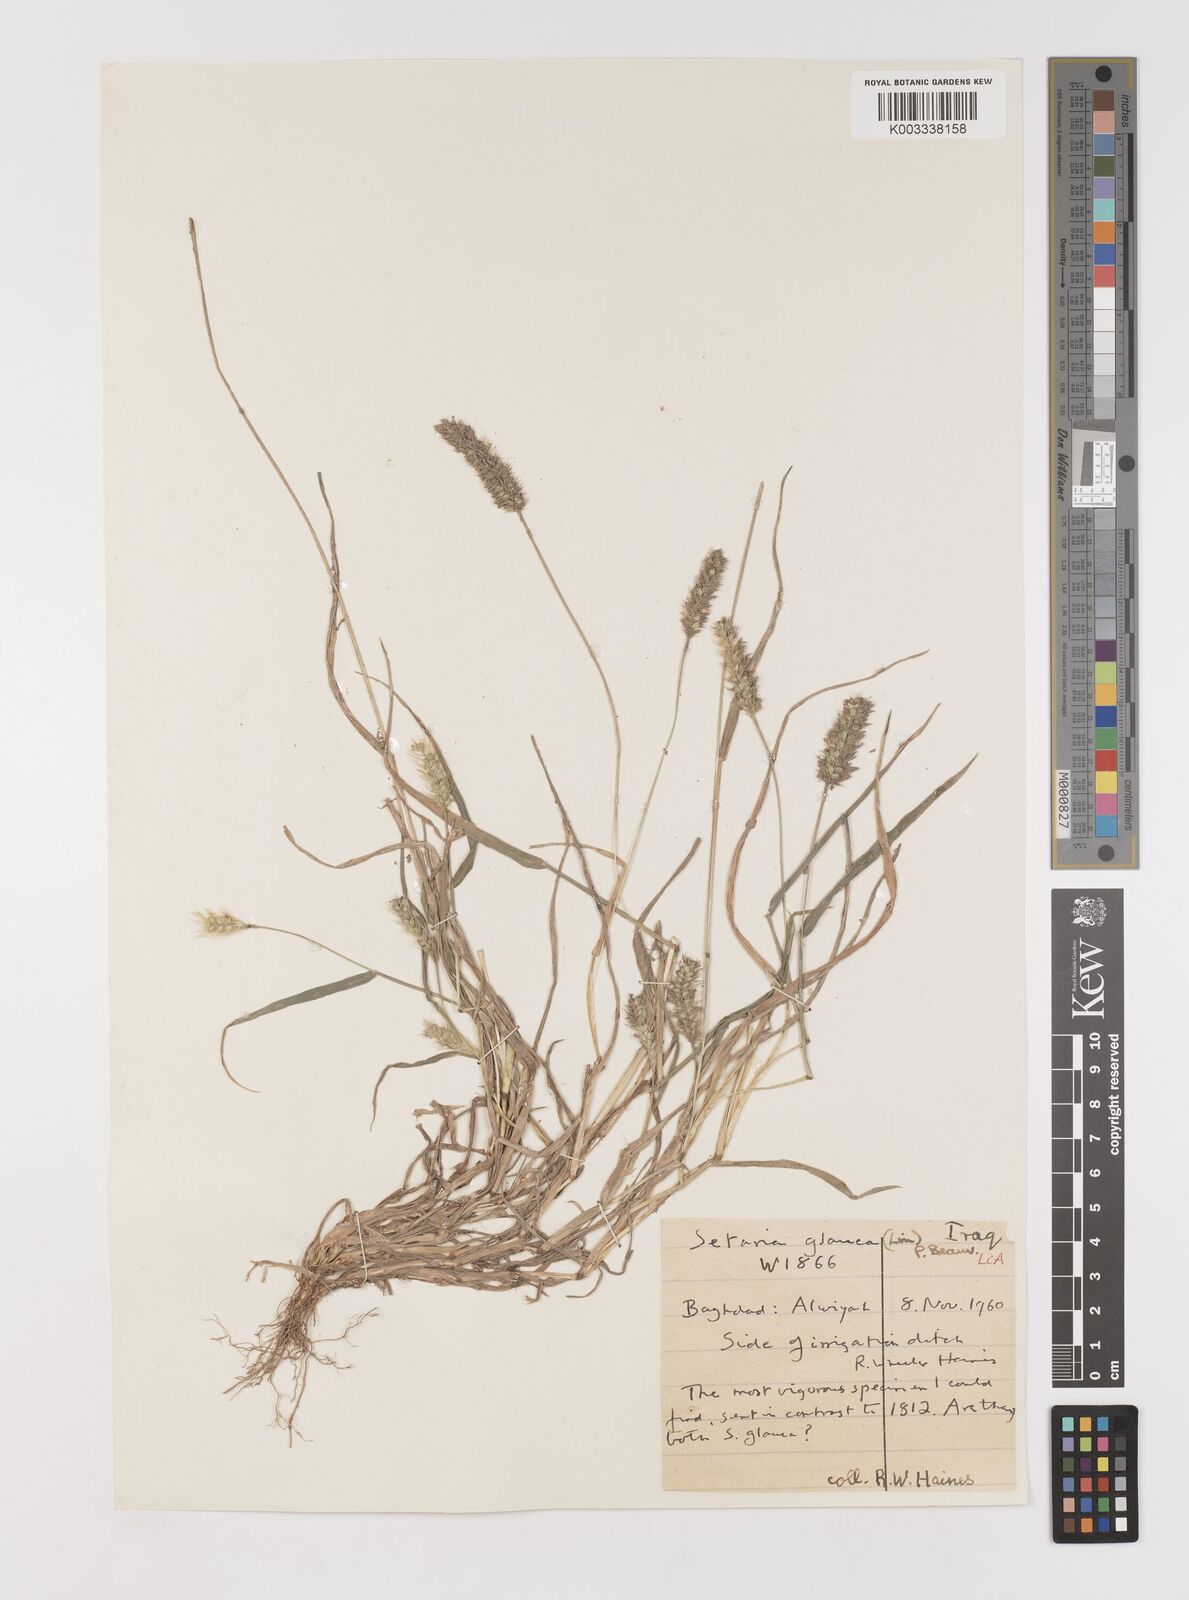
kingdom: Plantae
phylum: Tracheophyta
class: Liliopsida
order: Poales
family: Poaceae
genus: Setaria
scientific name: Setaria pumila
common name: Yellow bristle-grass
